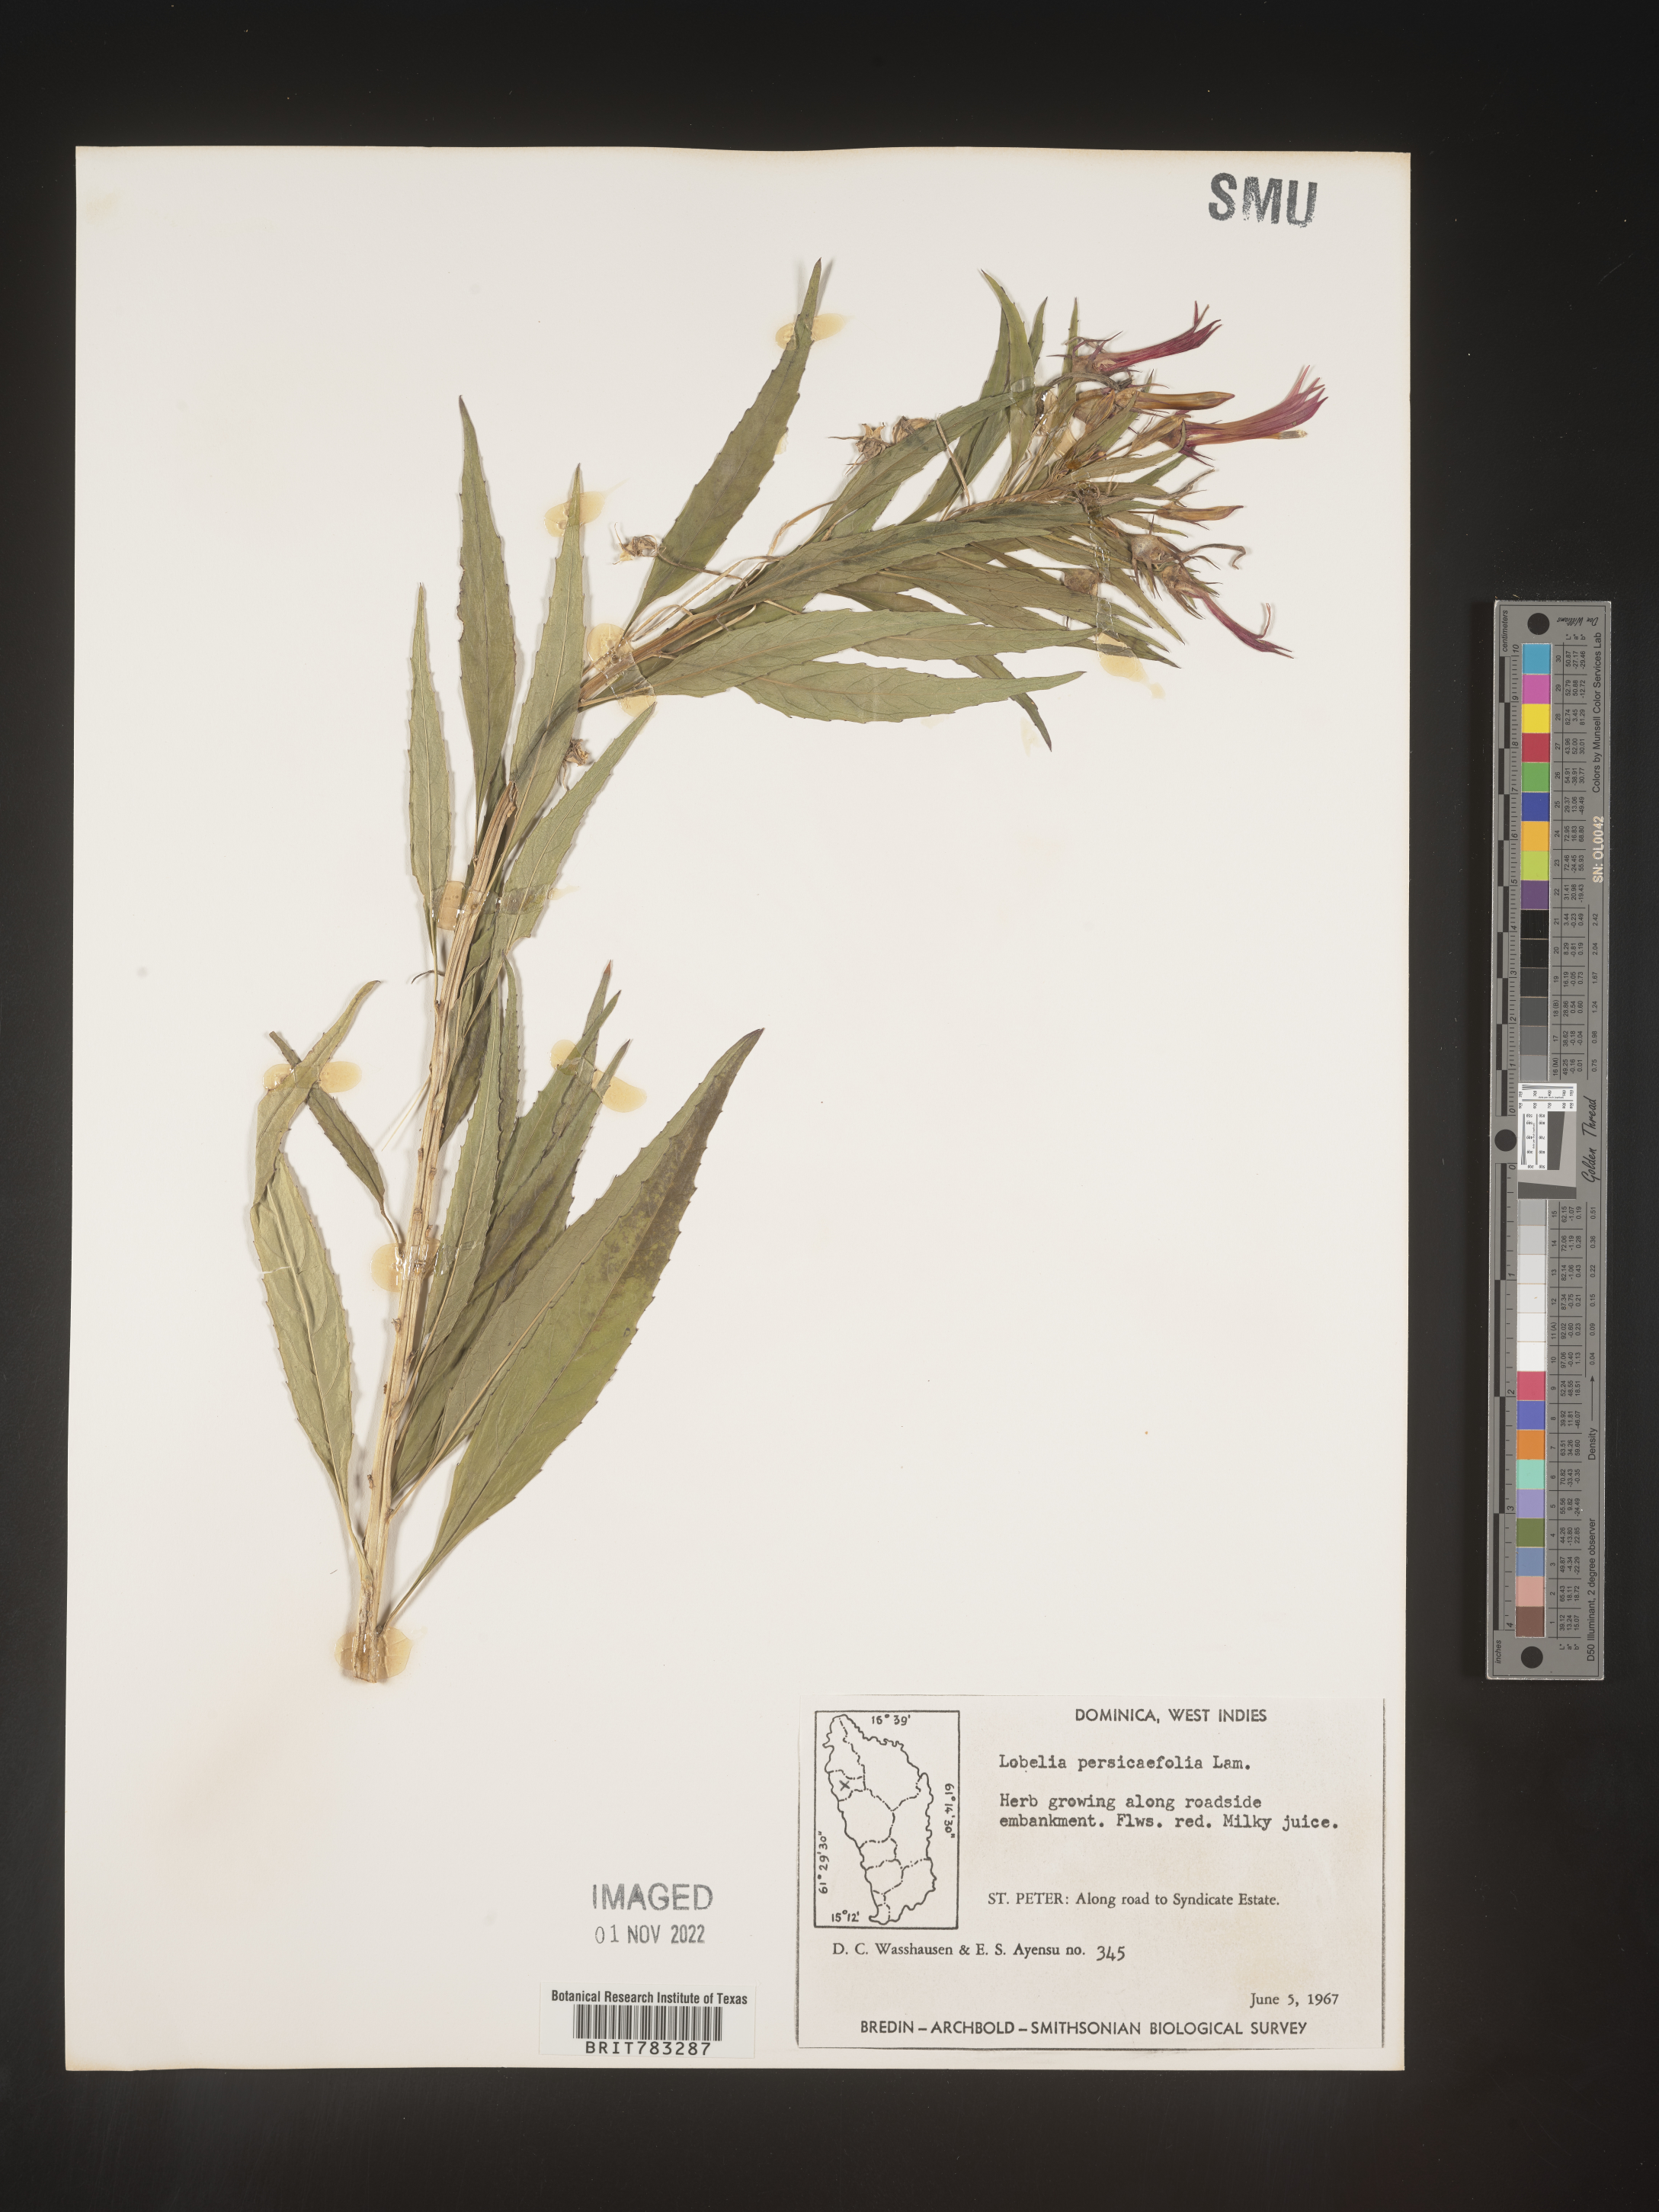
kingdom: Plantae
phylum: Tracheophyta
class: Magnoliopsida
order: Asterales
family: Campanulaceae
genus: Lobelia
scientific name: Lobelia
